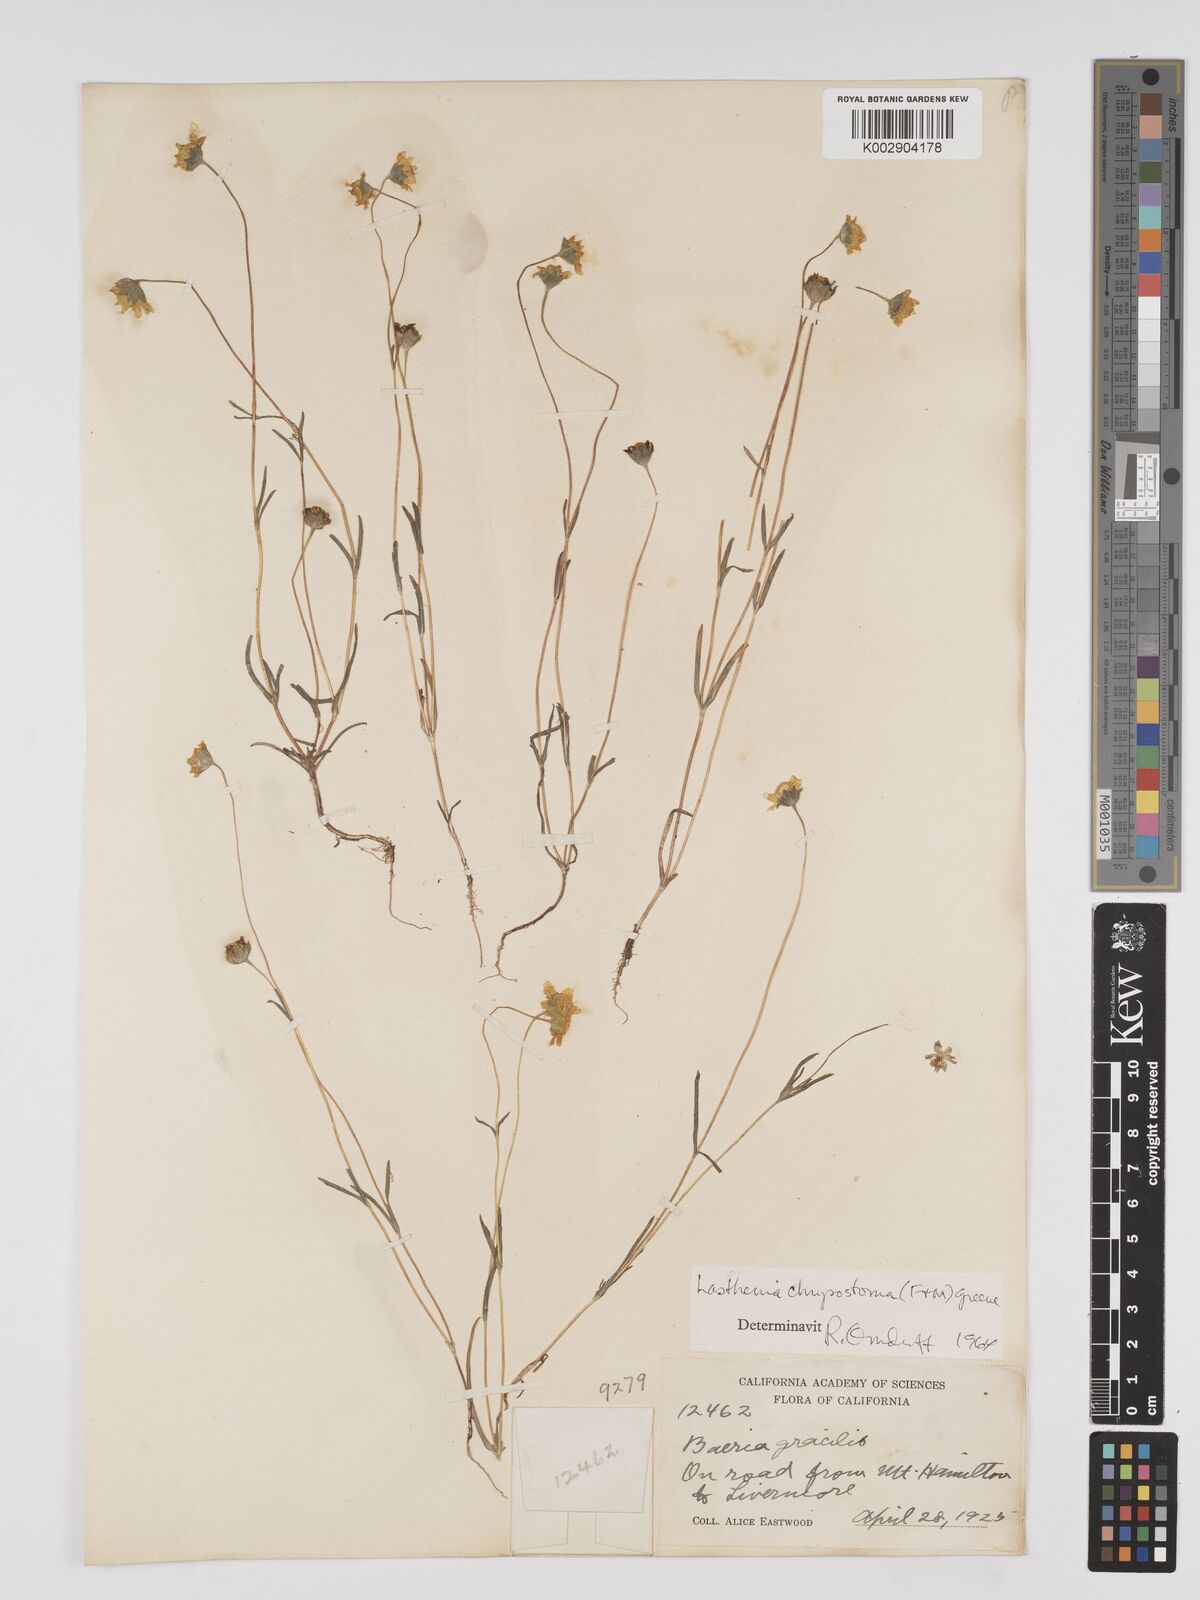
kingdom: Plantae
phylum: Tracheophyta
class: Magnoliopsida
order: Asterales
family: Asteraceae
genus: Lasthenia
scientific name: Lasthenia californica
